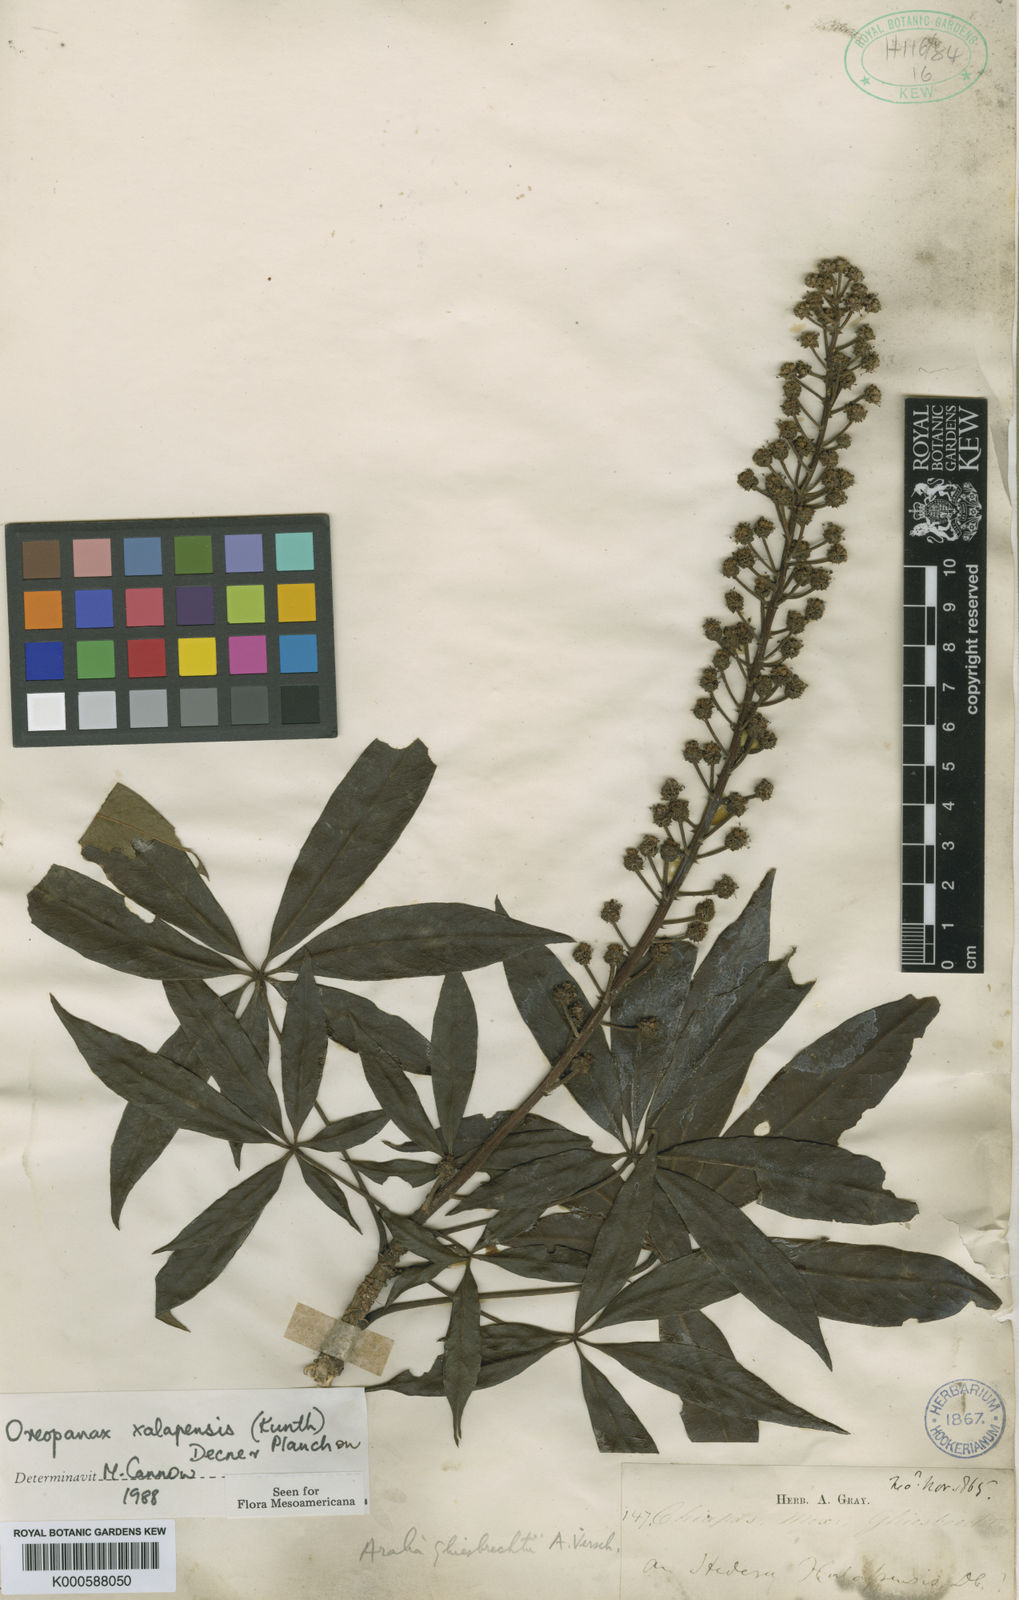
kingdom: Plantae
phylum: Tracheophyta
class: Magnoliopsida
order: Apiales
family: Araliaceae
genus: Oreopanax
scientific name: Oreopanax
